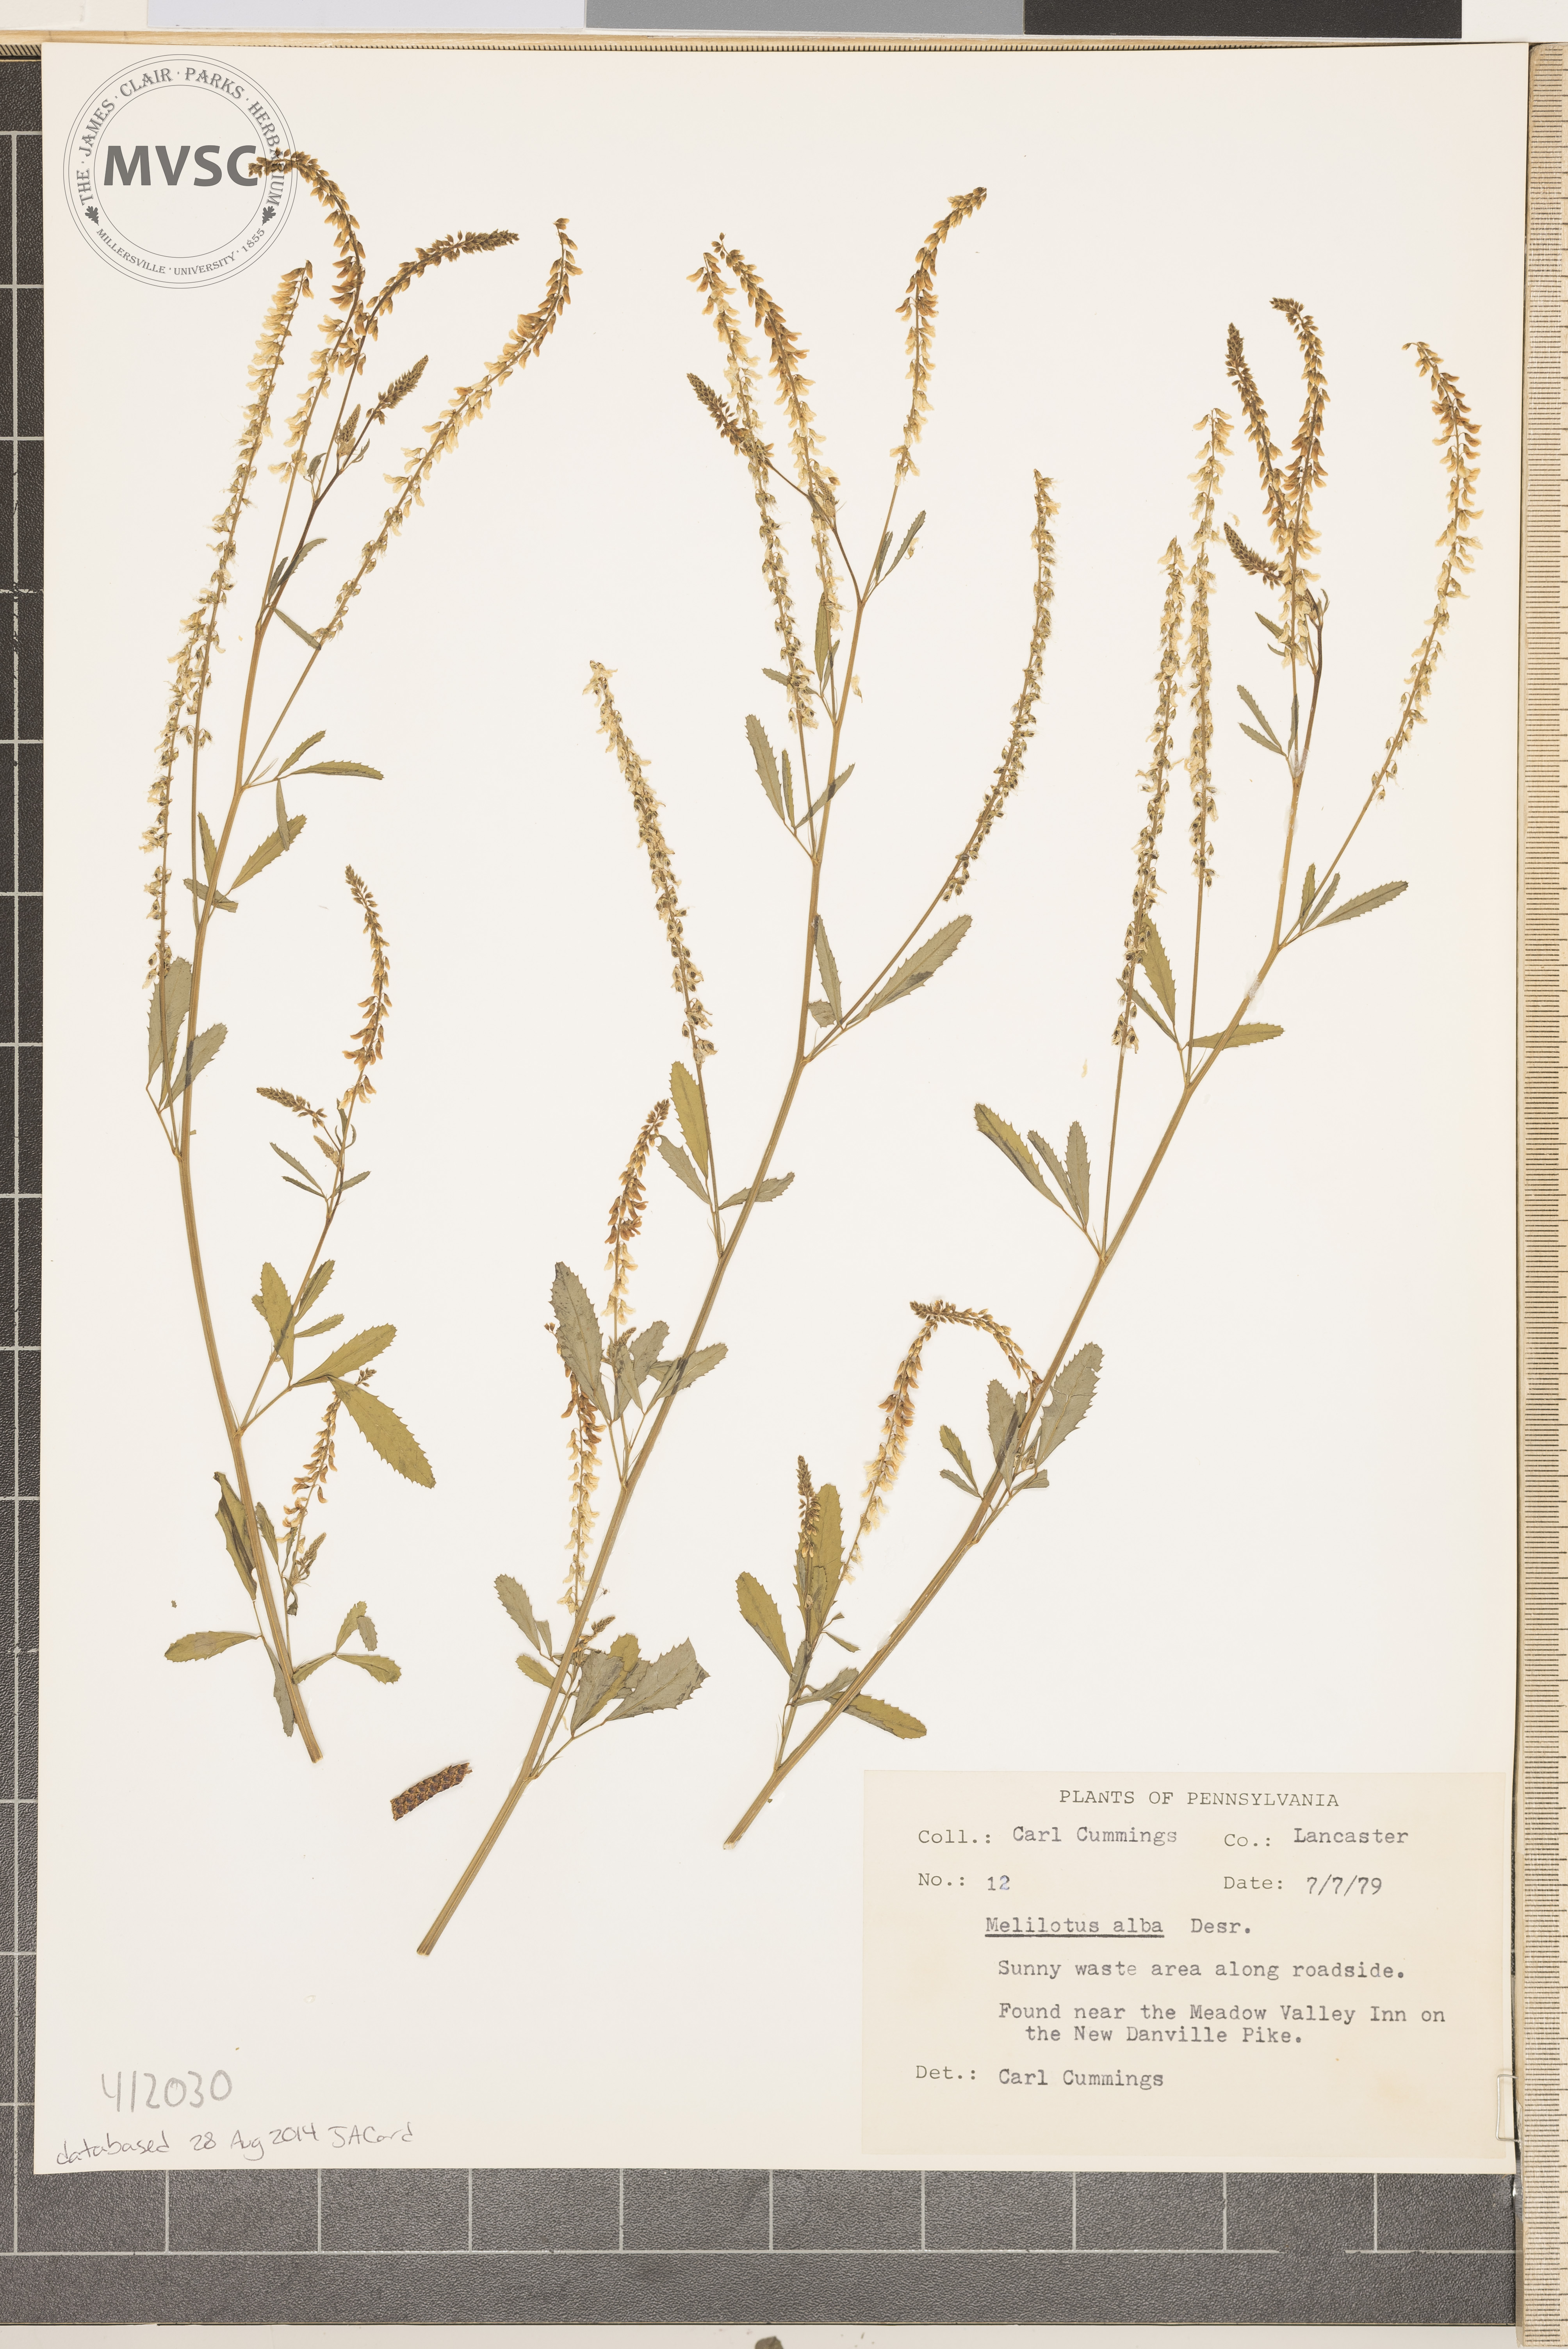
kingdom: Plantae
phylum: Tracheophyta
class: Magnoliopsida
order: Fabales
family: Fabaceae
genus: Melilotus
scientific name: Melilotus albus
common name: White melilot
